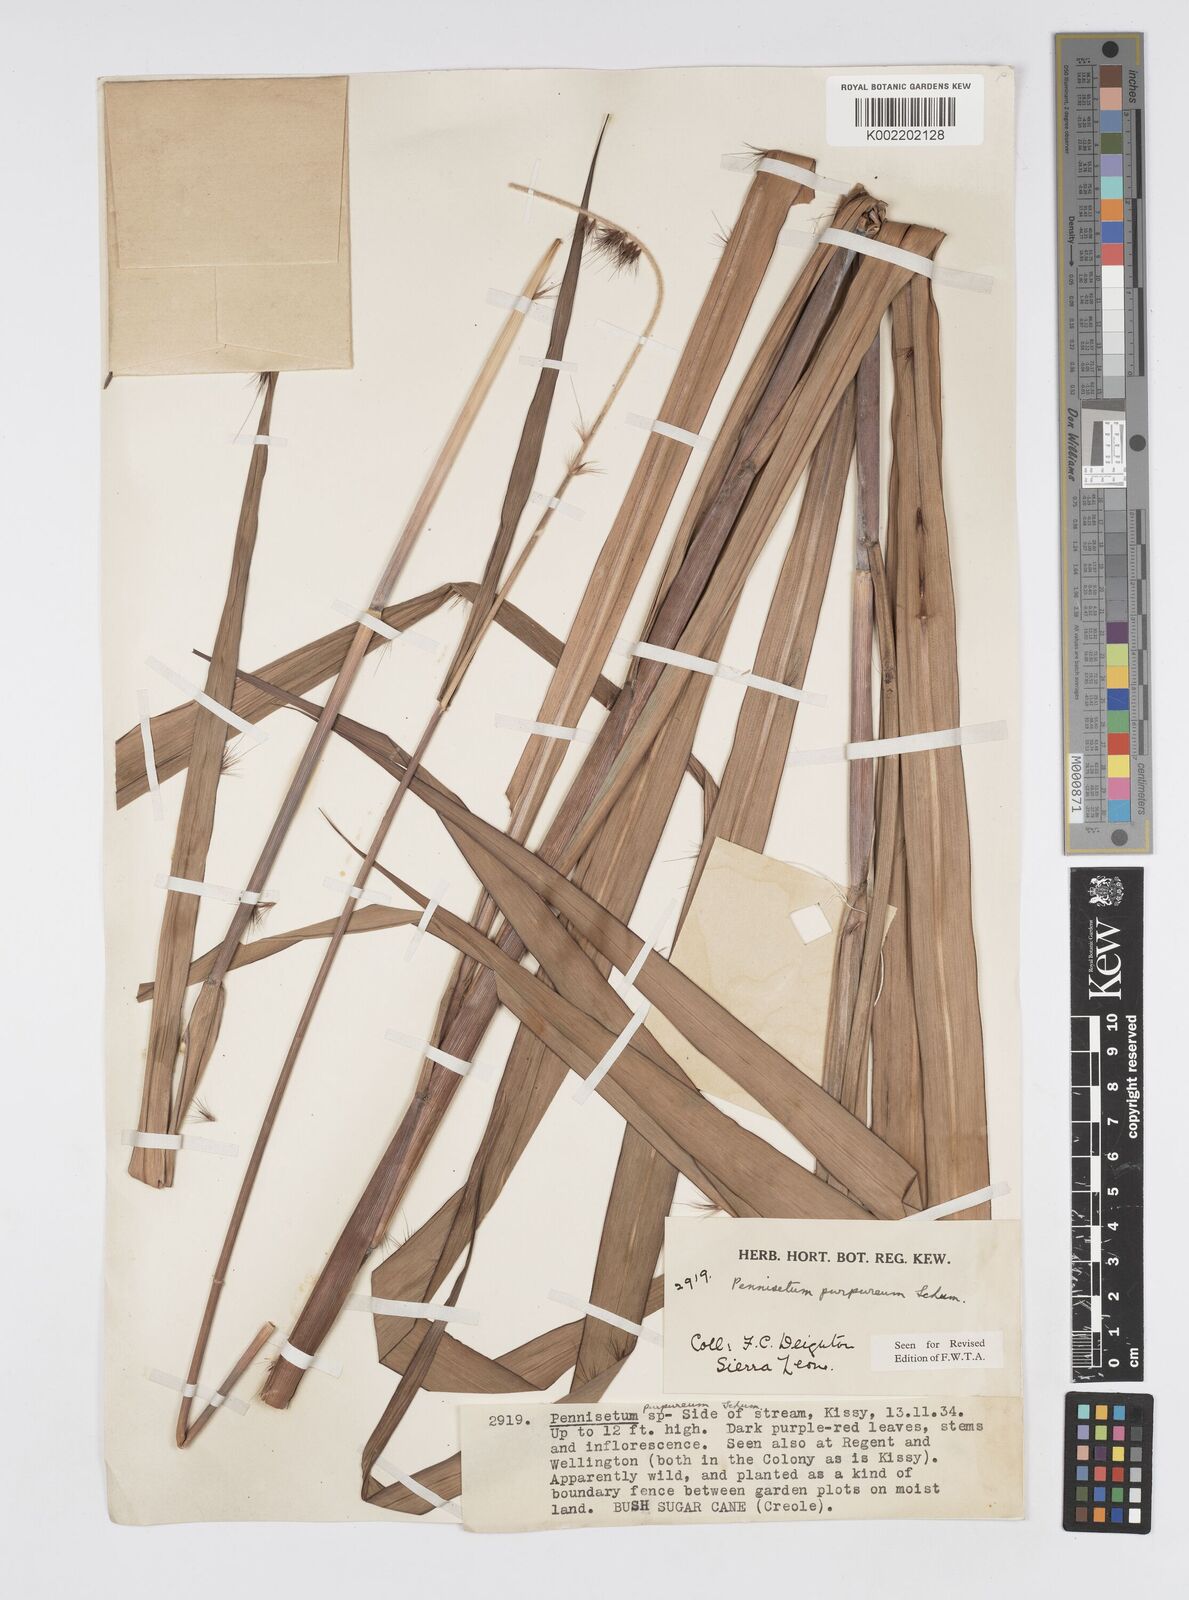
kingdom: Plantae
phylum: Tracheophyta
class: Liliopsida
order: Poales
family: Poaceae
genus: Cenchrus
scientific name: Cenchrus purpureus
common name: Elephant grass
